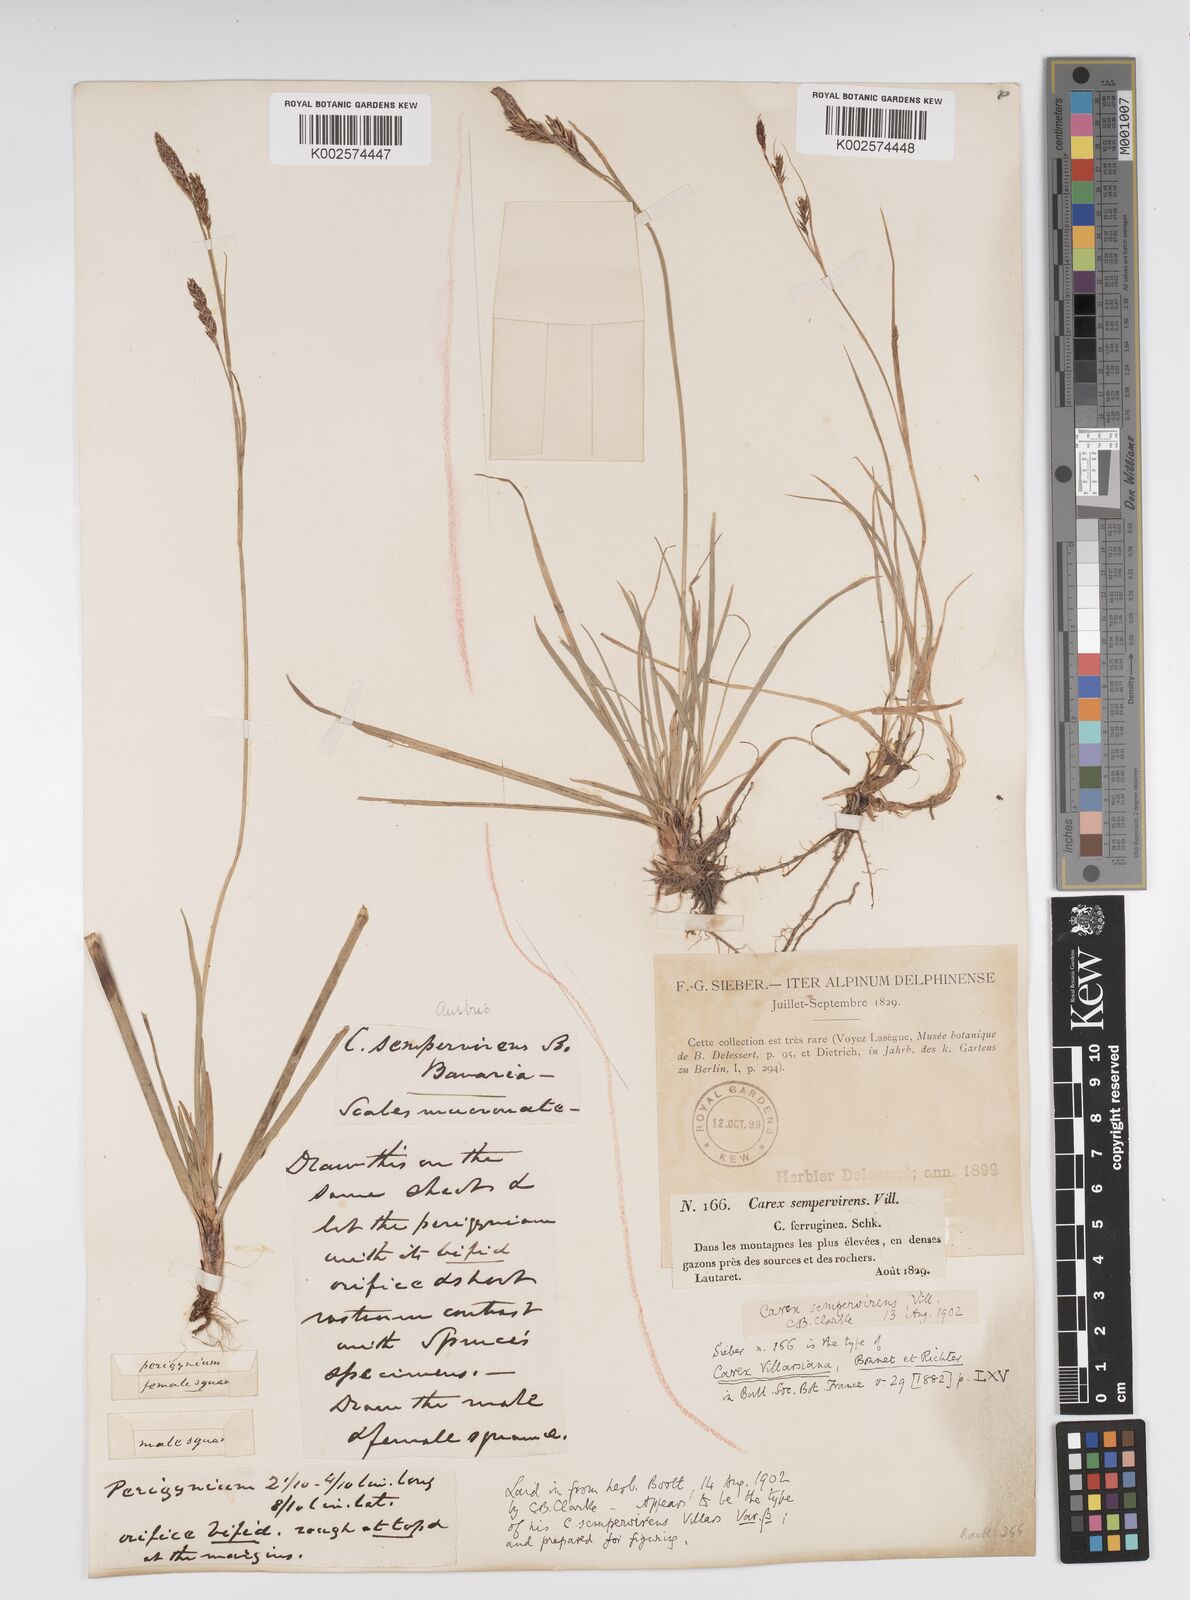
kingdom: Plantae
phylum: Tracheophyta
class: Liliopsida
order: Poales
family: Cyperaceae
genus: Carex
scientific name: Carex sempervirens
